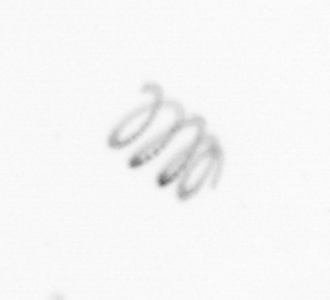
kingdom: Chromista
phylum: Ochrophyta
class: Bacillariophyceae
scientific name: Bacillariophyceae
